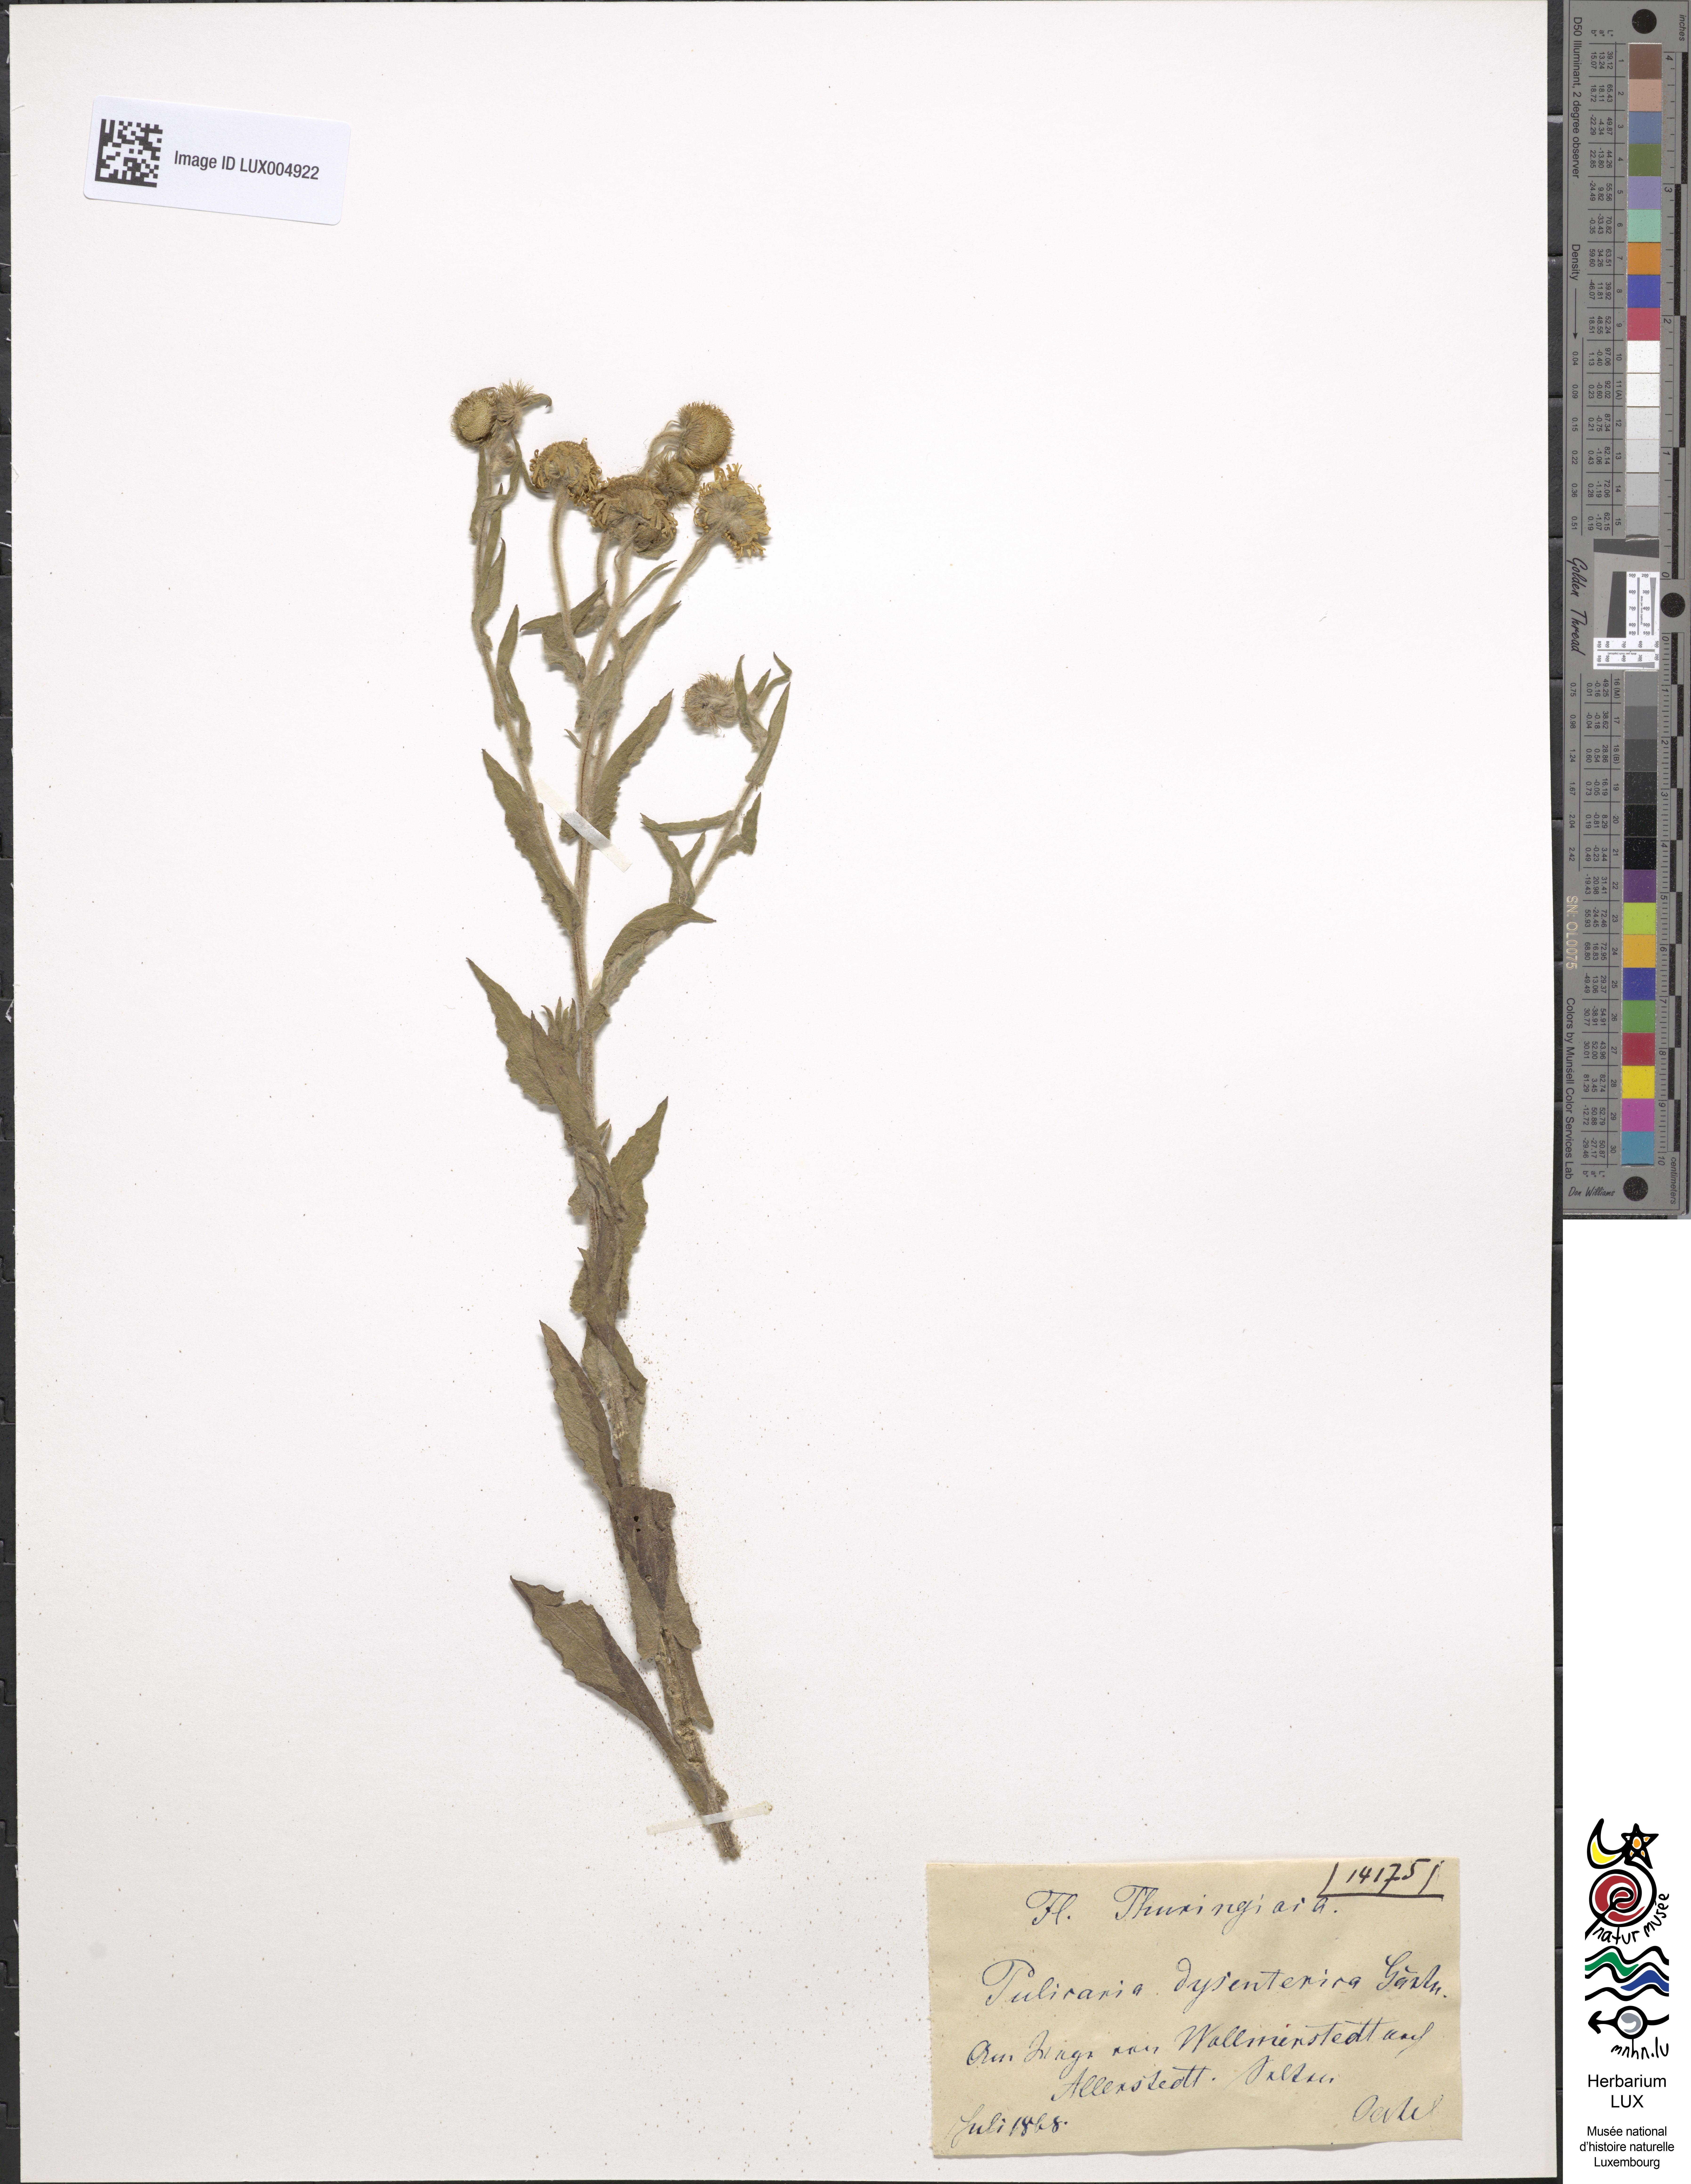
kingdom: Plantae
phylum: Tracheophyta
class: Magnoliopsida
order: Asterales
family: Asteraceae
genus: Pulicaria
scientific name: Pulicaria dysenterica
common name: Common fleabane
